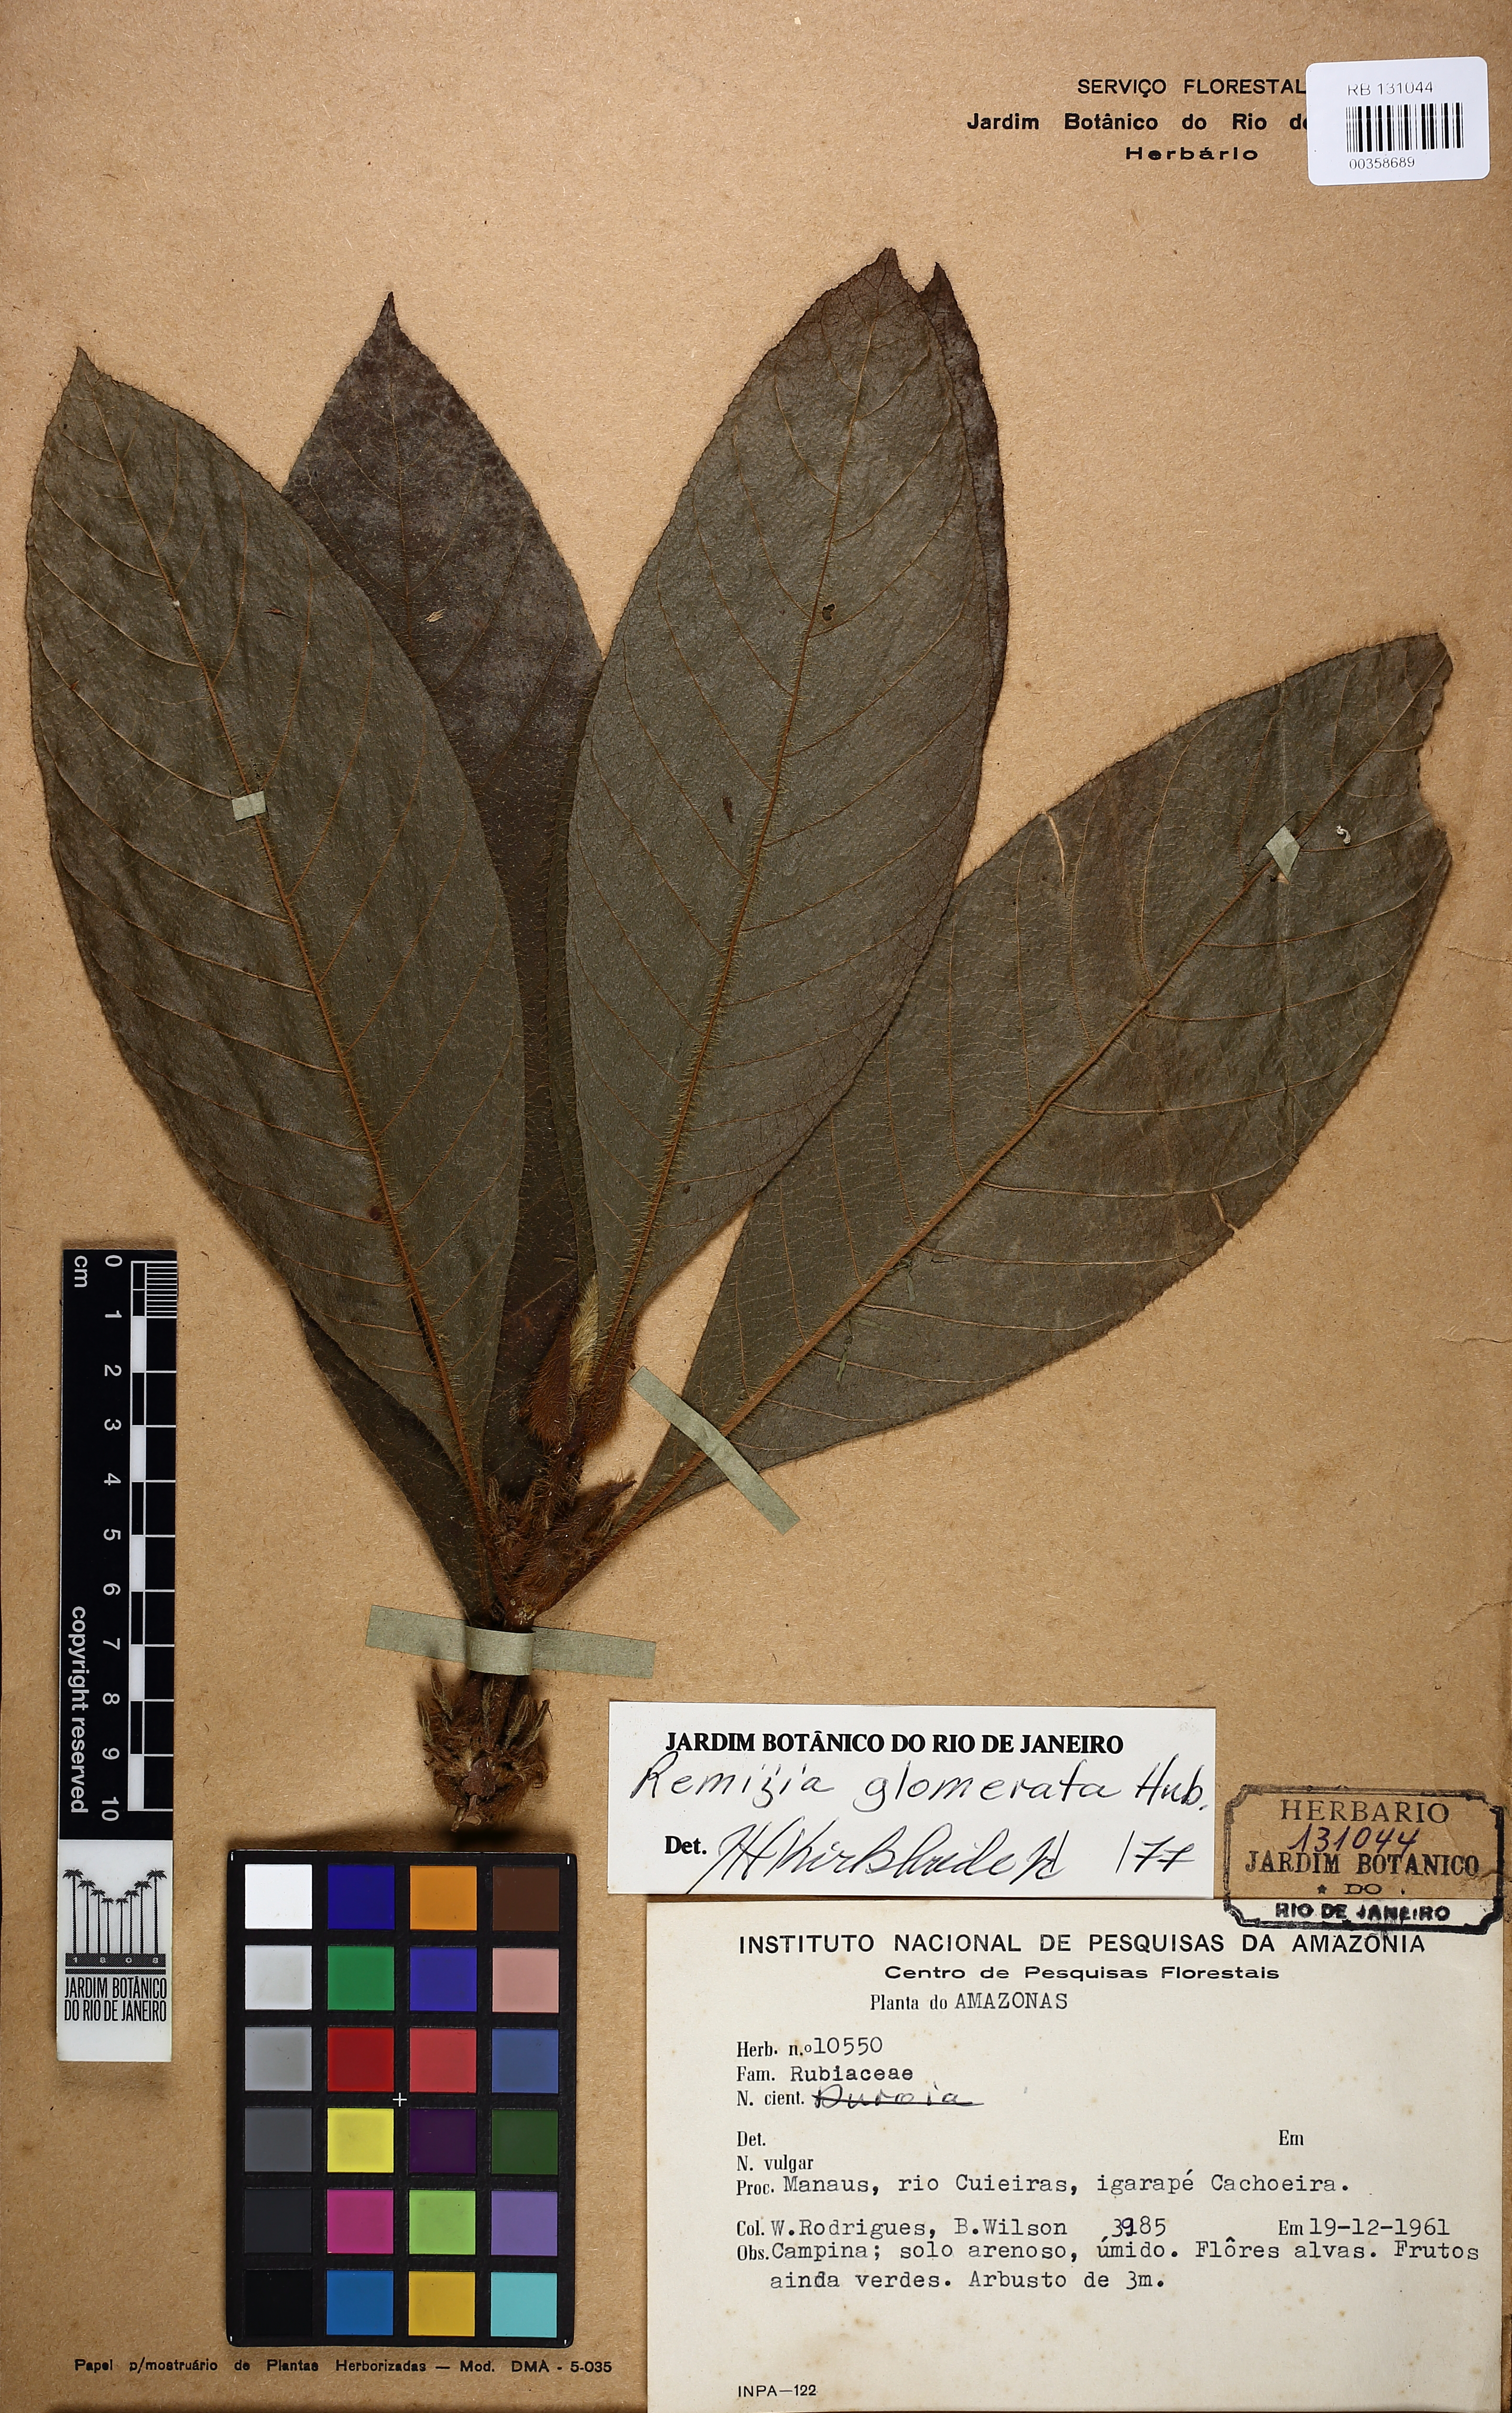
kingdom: Plantae
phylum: Tracheophyta
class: Magnoliopsida
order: Gentianales
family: Rubiaceae
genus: Remijia
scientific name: Remijia glomerata
